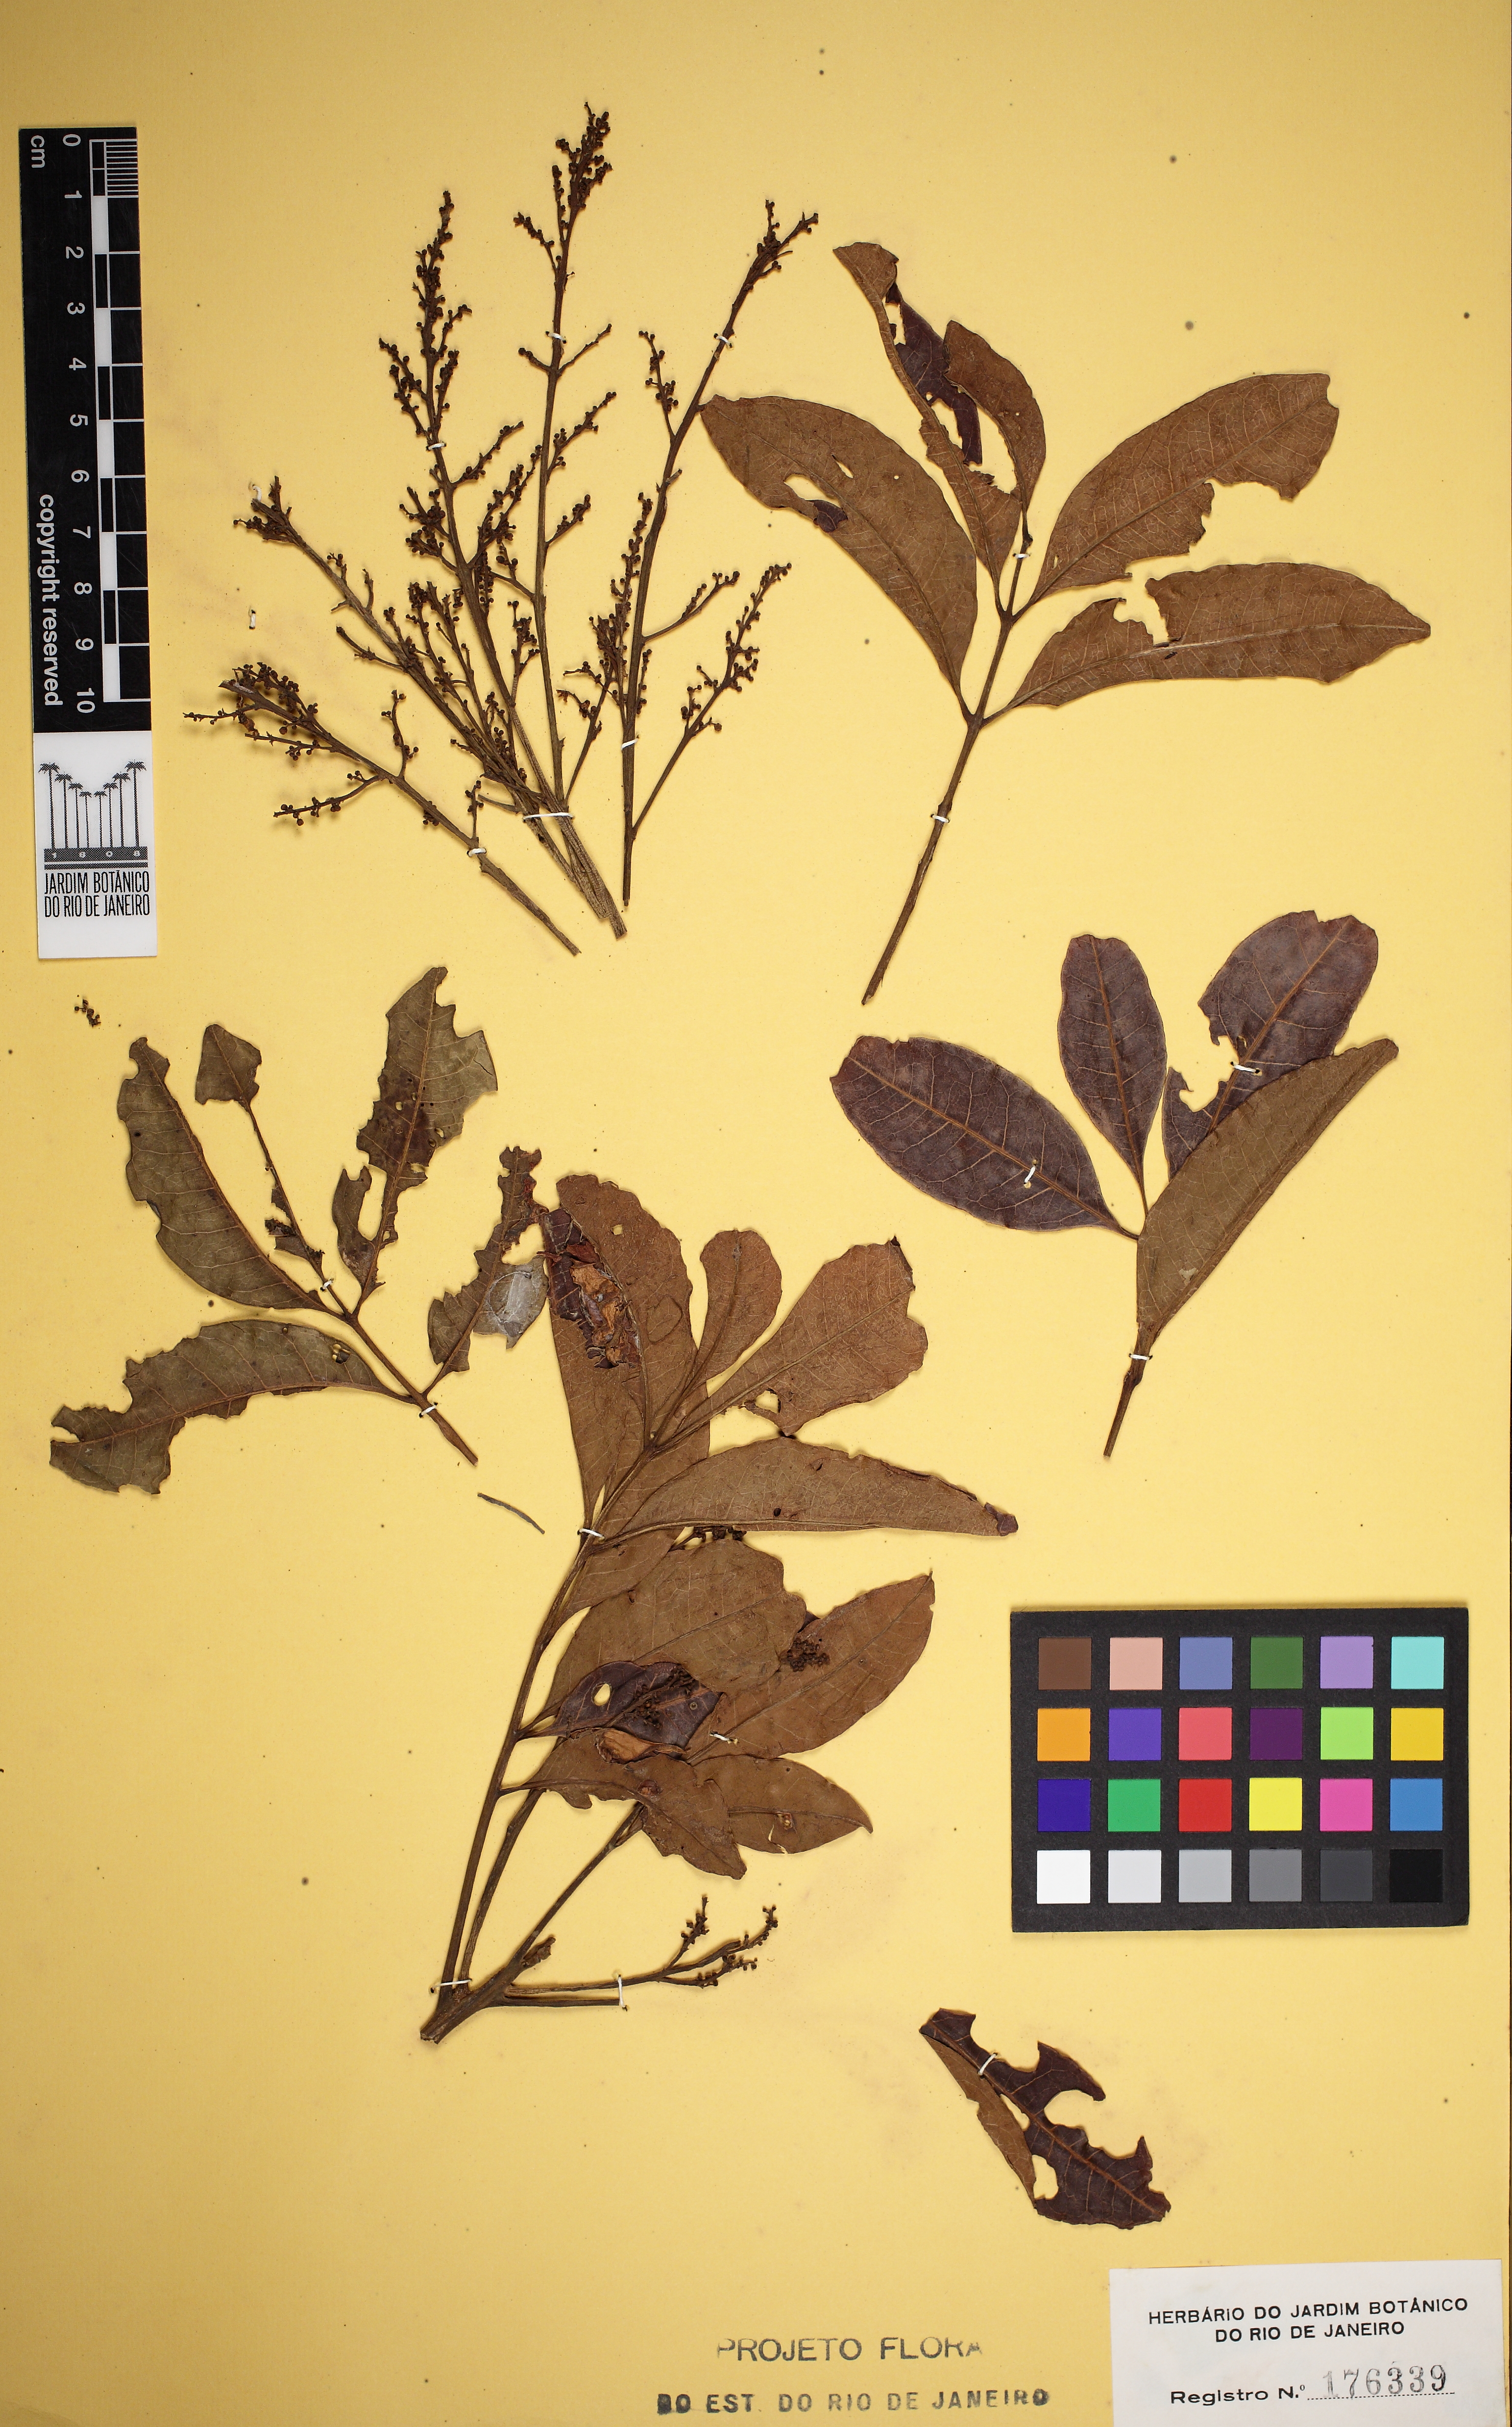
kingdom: Plantae
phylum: Tracheophyta
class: Magnoliopsida
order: Sapindales
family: Anacardiaceae
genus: Tapirira
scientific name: Tapirira guianensis
